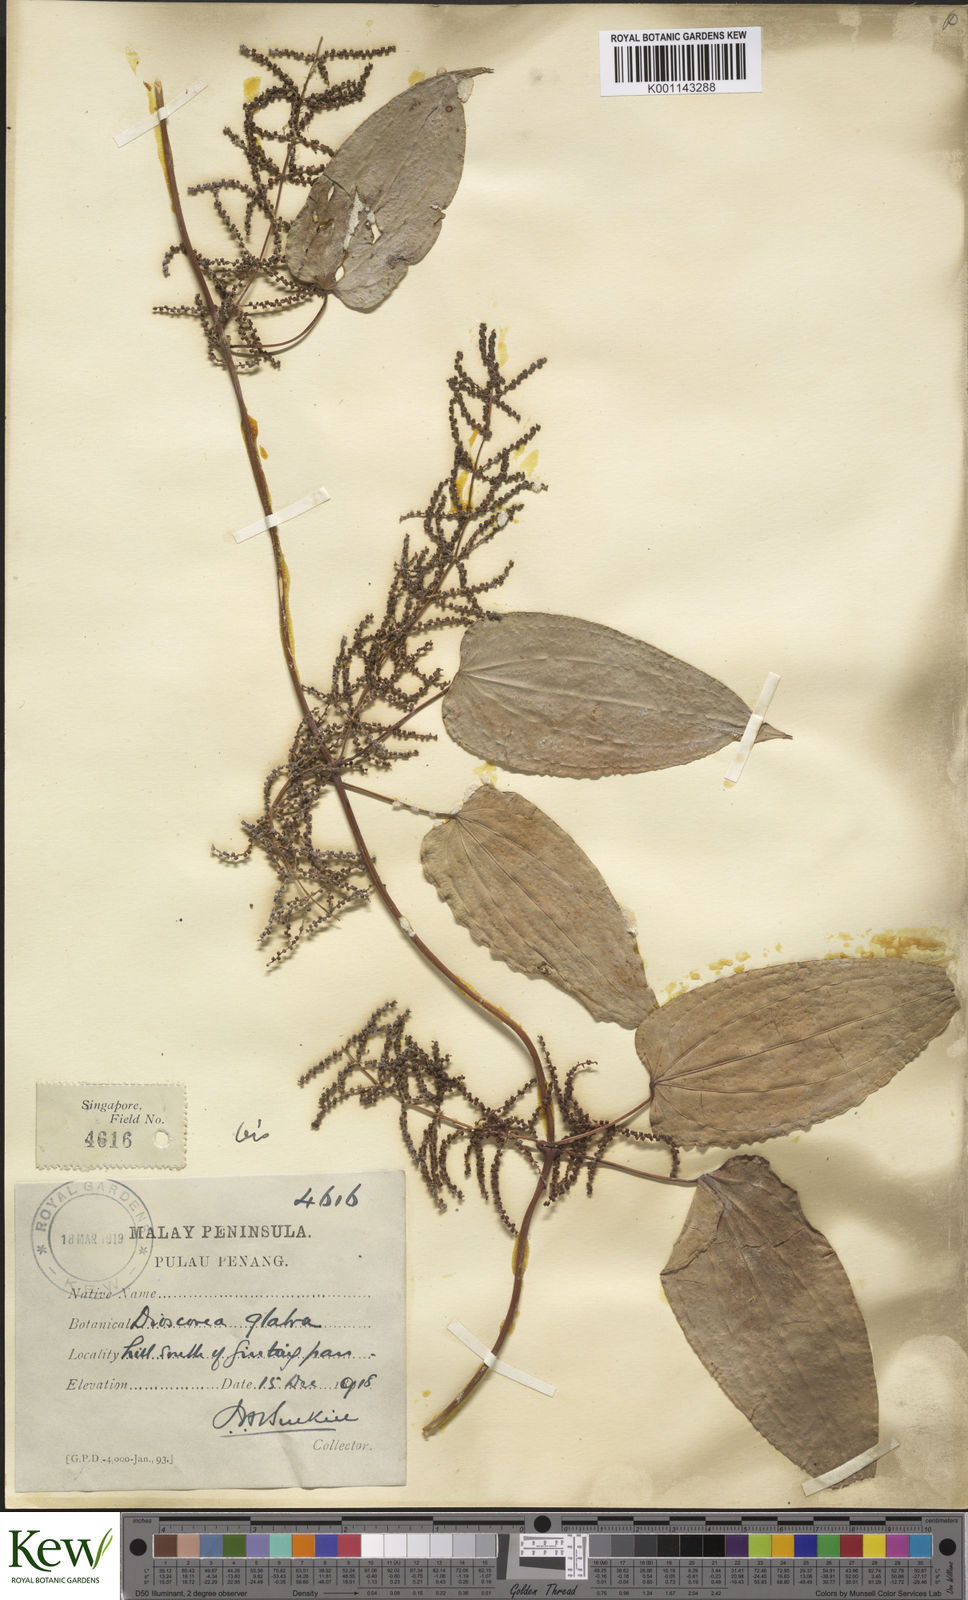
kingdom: Plantae
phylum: Tracheophyta
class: Liliopsida
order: Dioscoreales
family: Dioscoreaceae
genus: Dioscorea
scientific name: Dioscorea glabra
